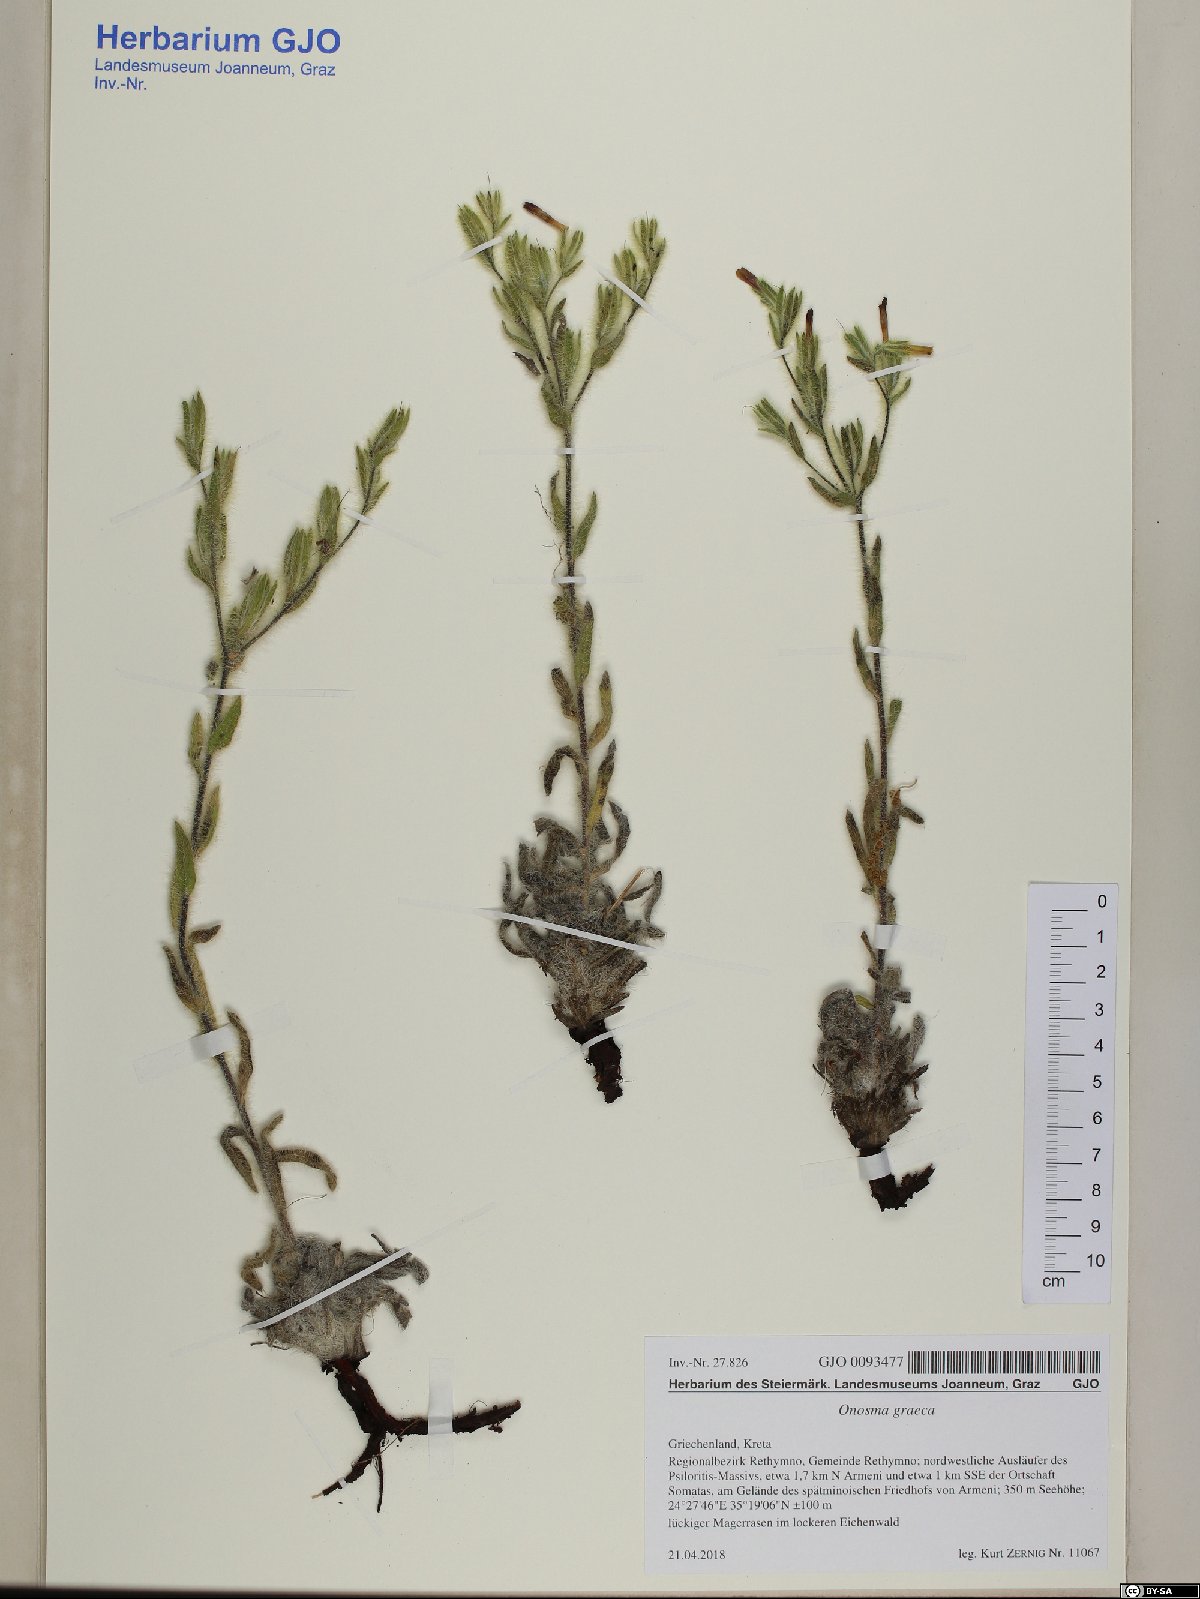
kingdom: Plantae
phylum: Tracheophyta
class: Magnoliopsida
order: Boraginales
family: Boraginaceae
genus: Onosma
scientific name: Onosma graeca
